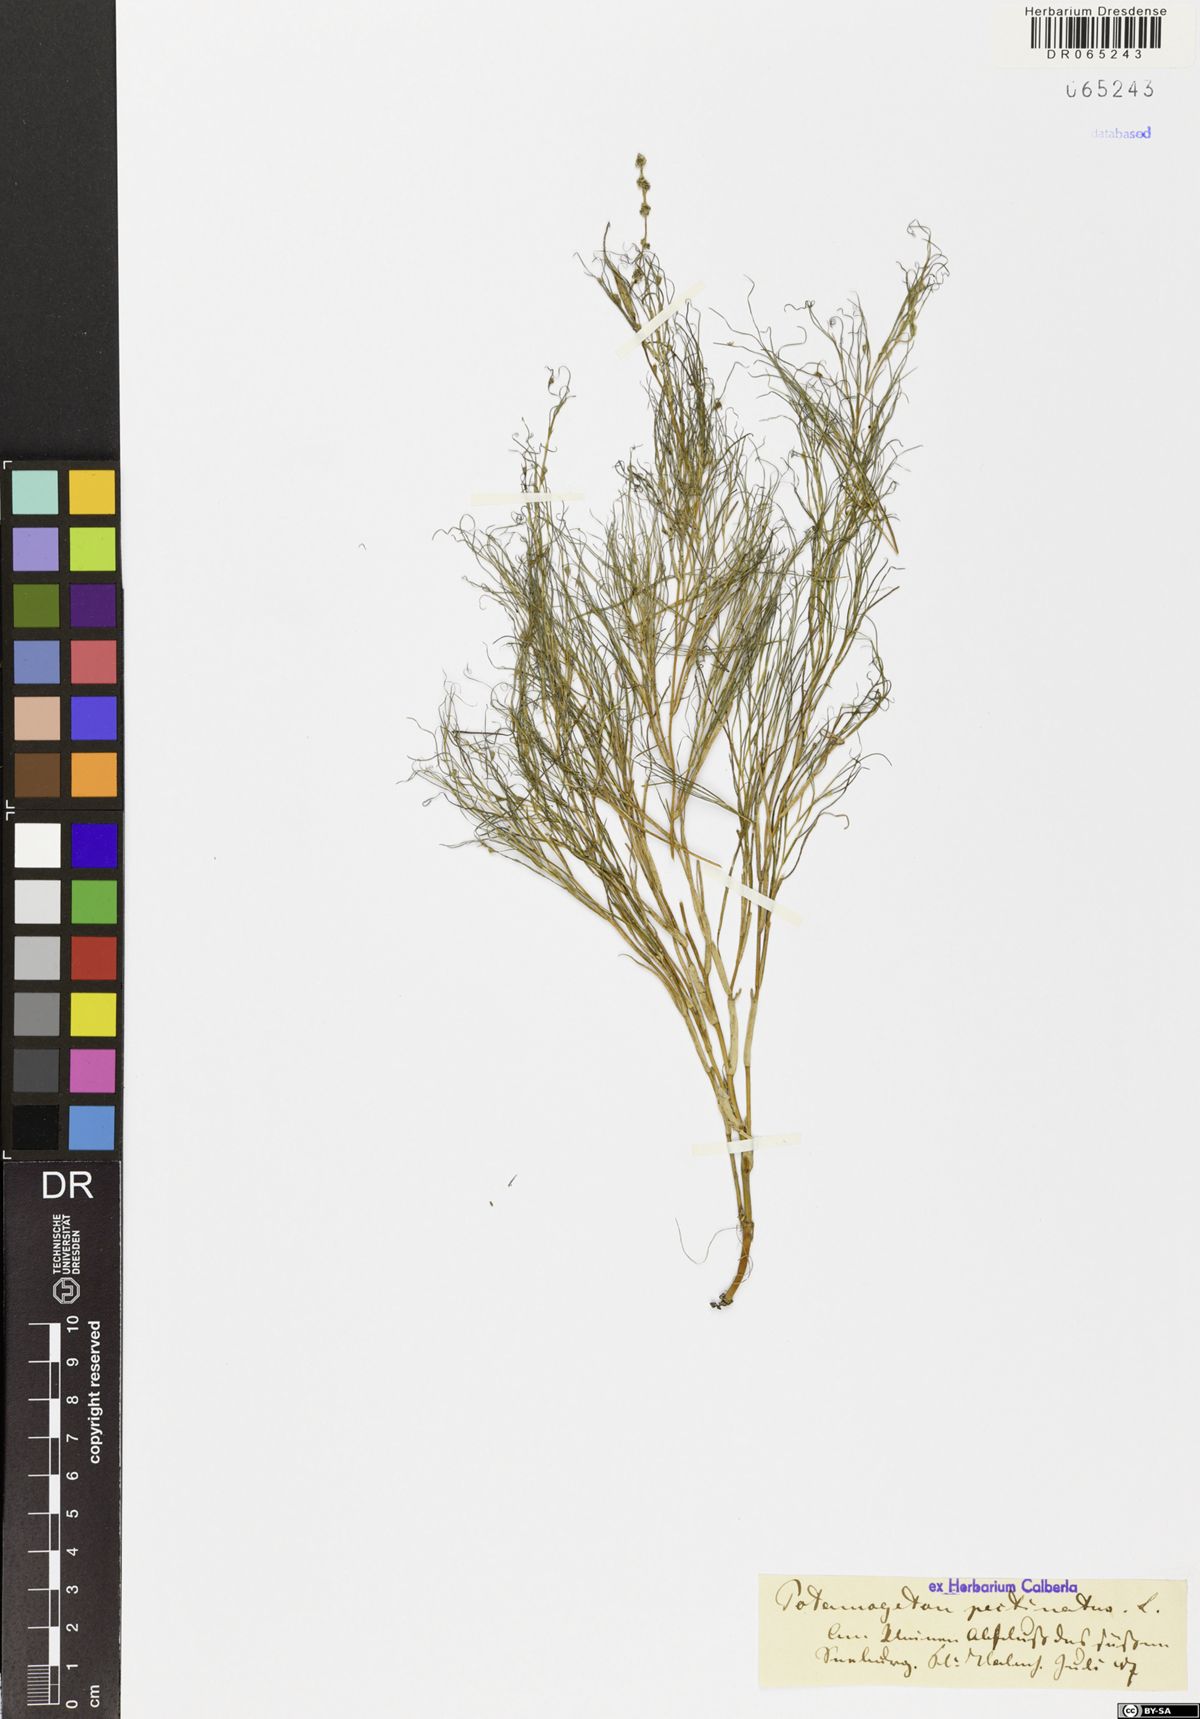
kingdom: Plantae
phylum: Tracheophyta
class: Liliopsida
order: Alismatales
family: Potamogetonaceae
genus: Stuckenia
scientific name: Stuckenia pectinata
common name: Sago pondweed
